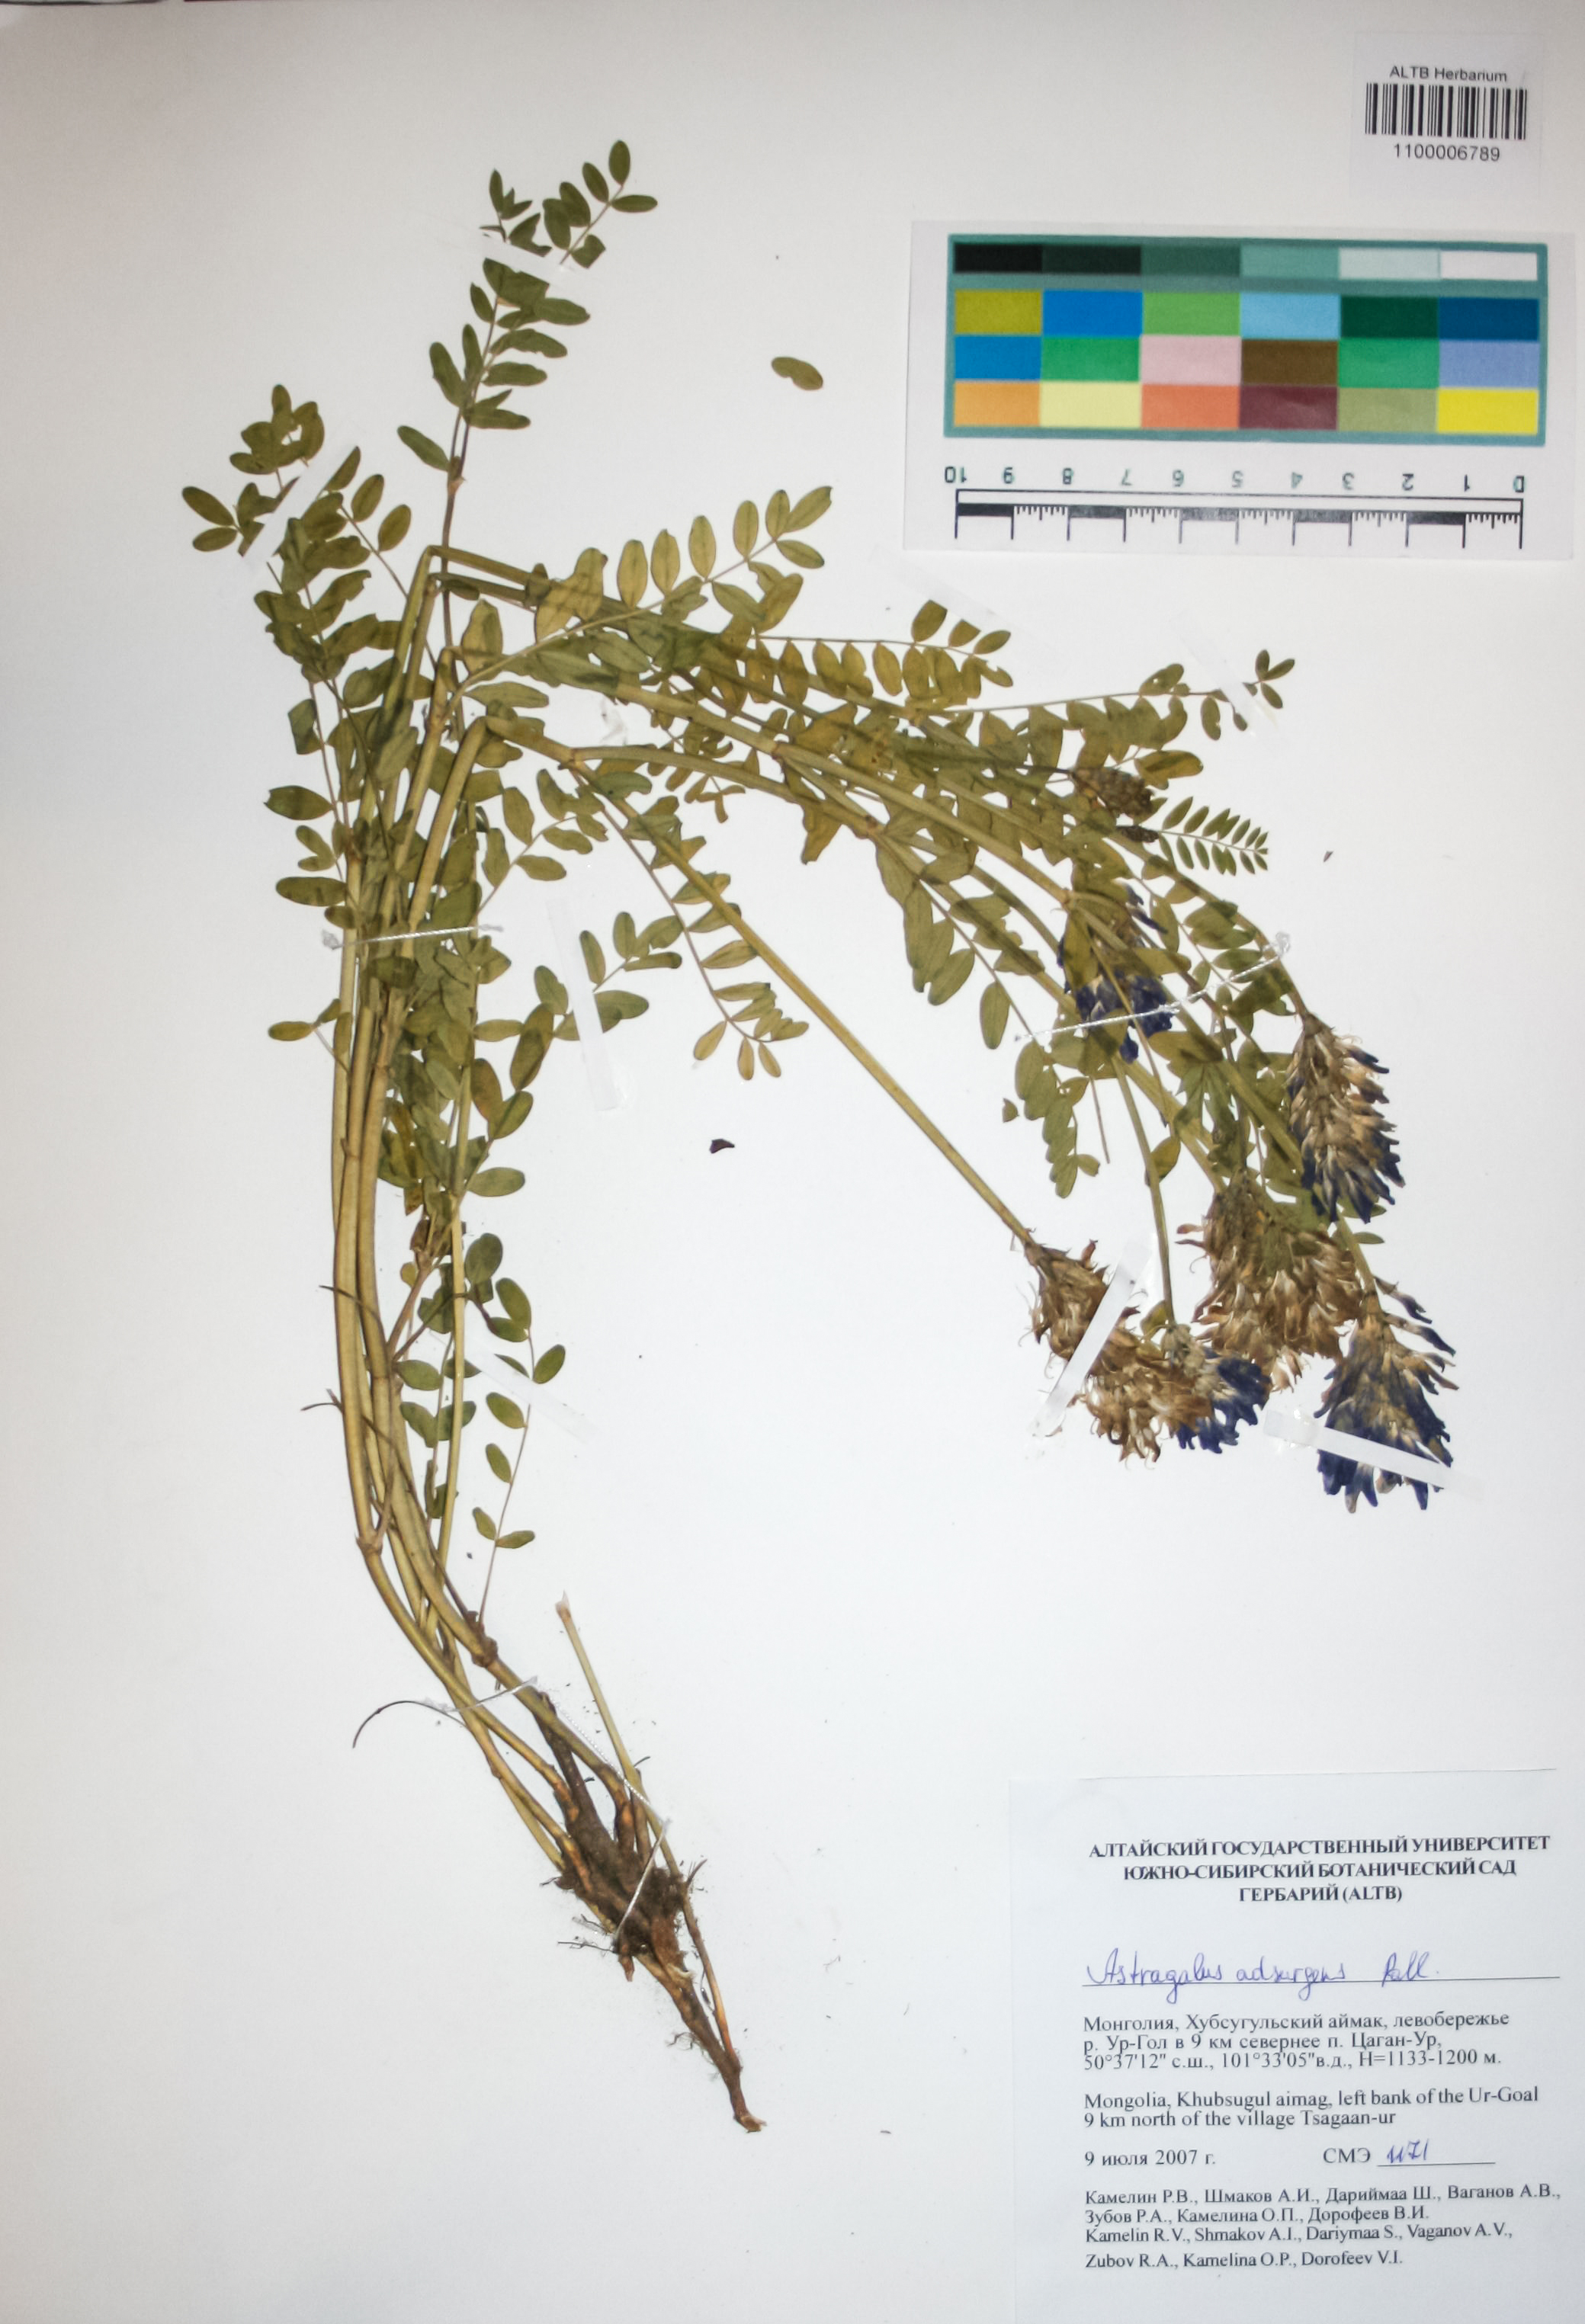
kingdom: Plantae
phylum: Tracheophyta
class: Magnoliopsida
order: Fabales
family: Fabaceae
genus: Astragalus
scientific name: Astragalus laxmannii
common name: Laxmann's milk-vetch
